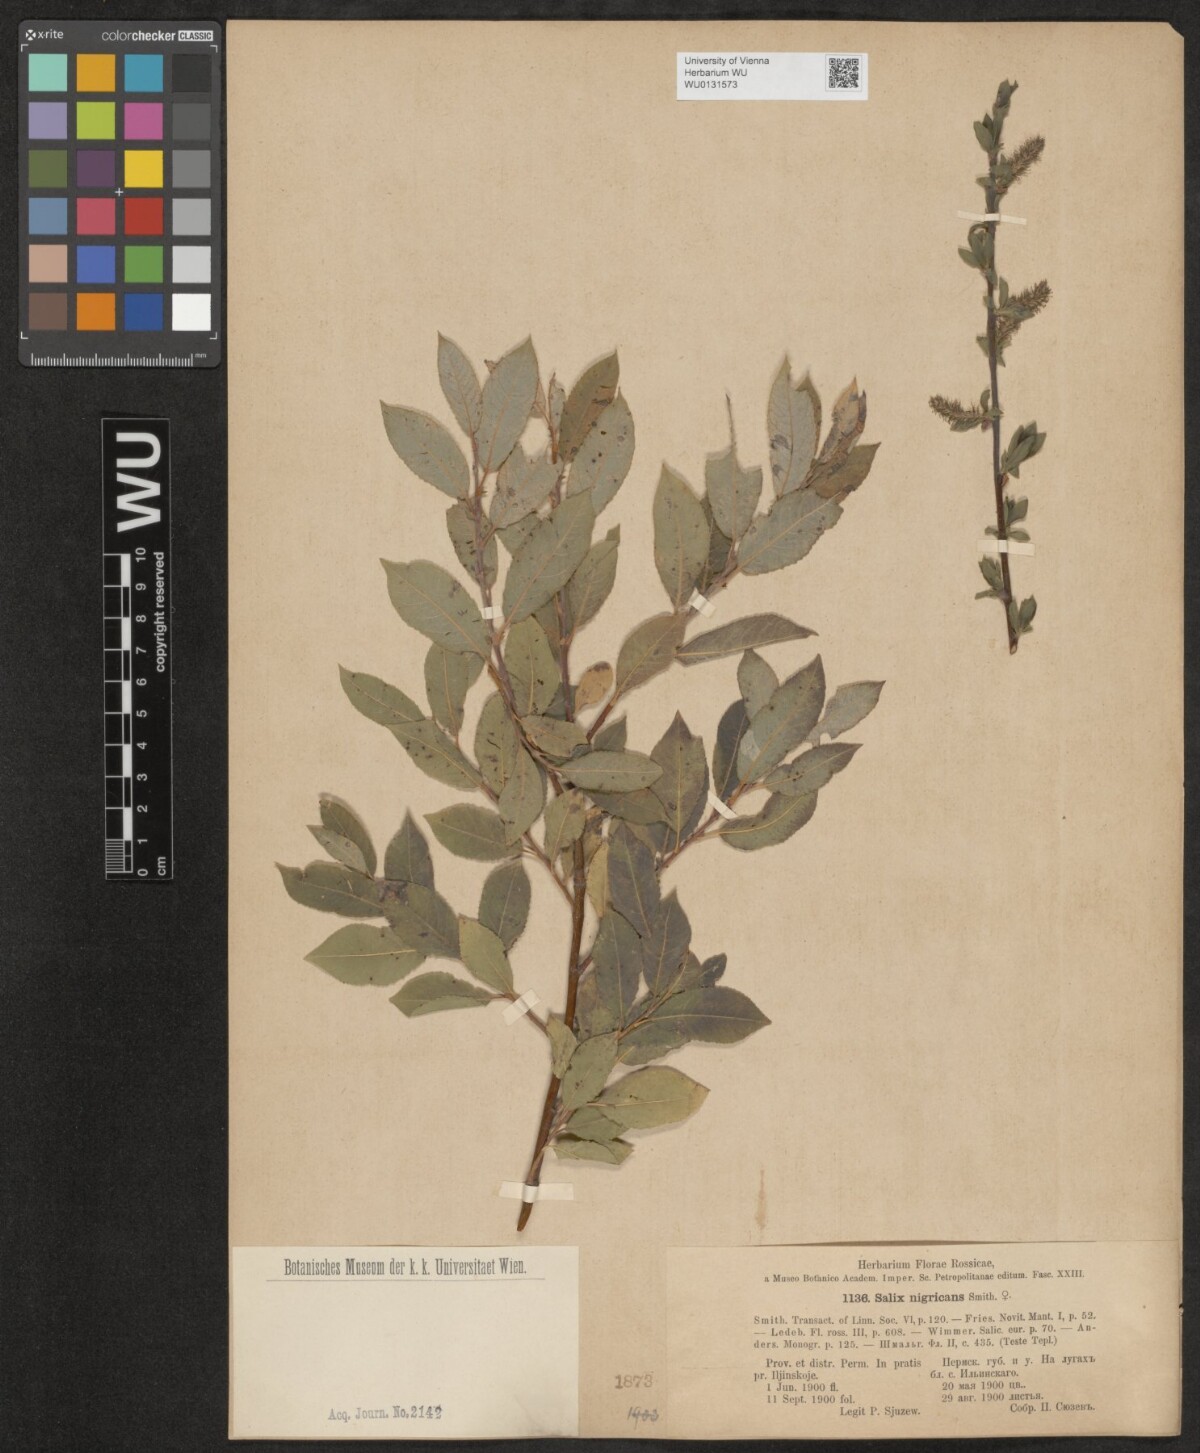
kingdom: Plantae
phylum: Tracheophyta
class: Magnoliopsida
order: Malpighiales
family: Salicaceae
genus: Salix
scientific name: Salix myrsinifolia
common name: Dark-leaved willow
